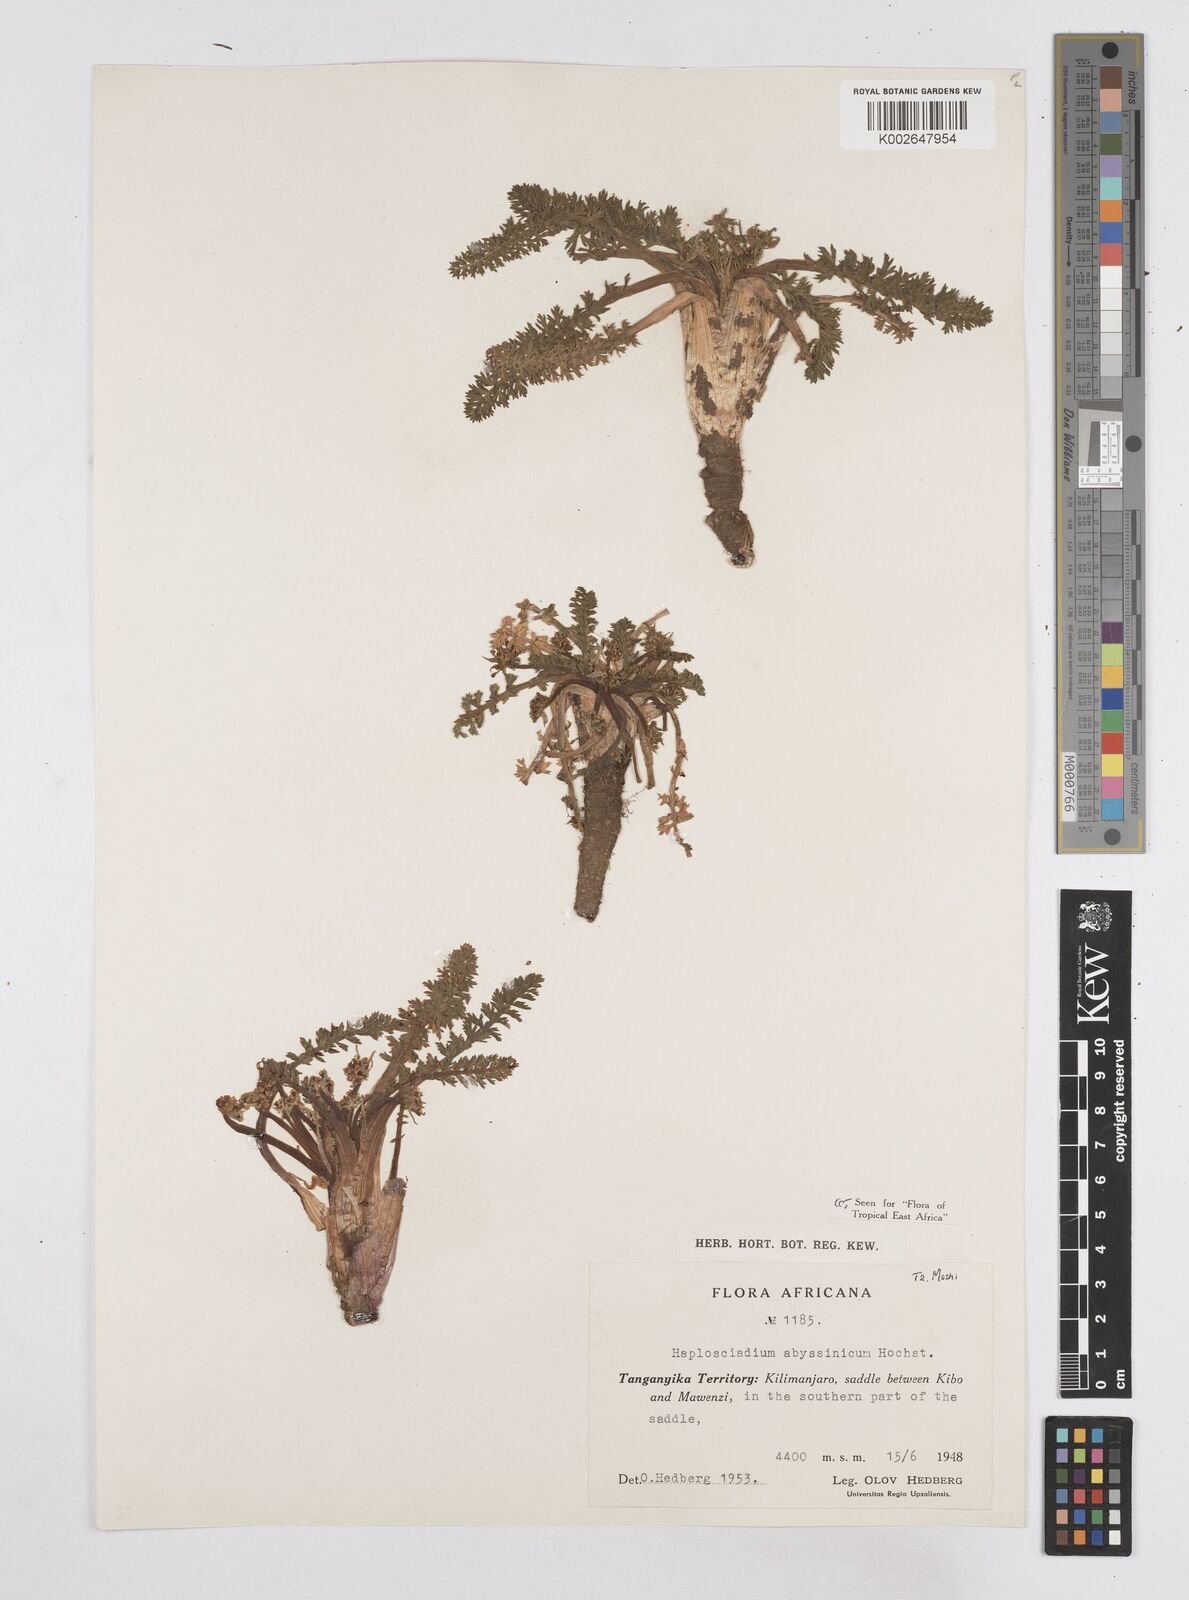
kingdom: Plantae
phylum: Tracheophyta
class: Magnoliopsida
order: Apiales
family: Apiaceae
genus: Haplosciadium
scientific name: Haplosciadium abyssinicum
